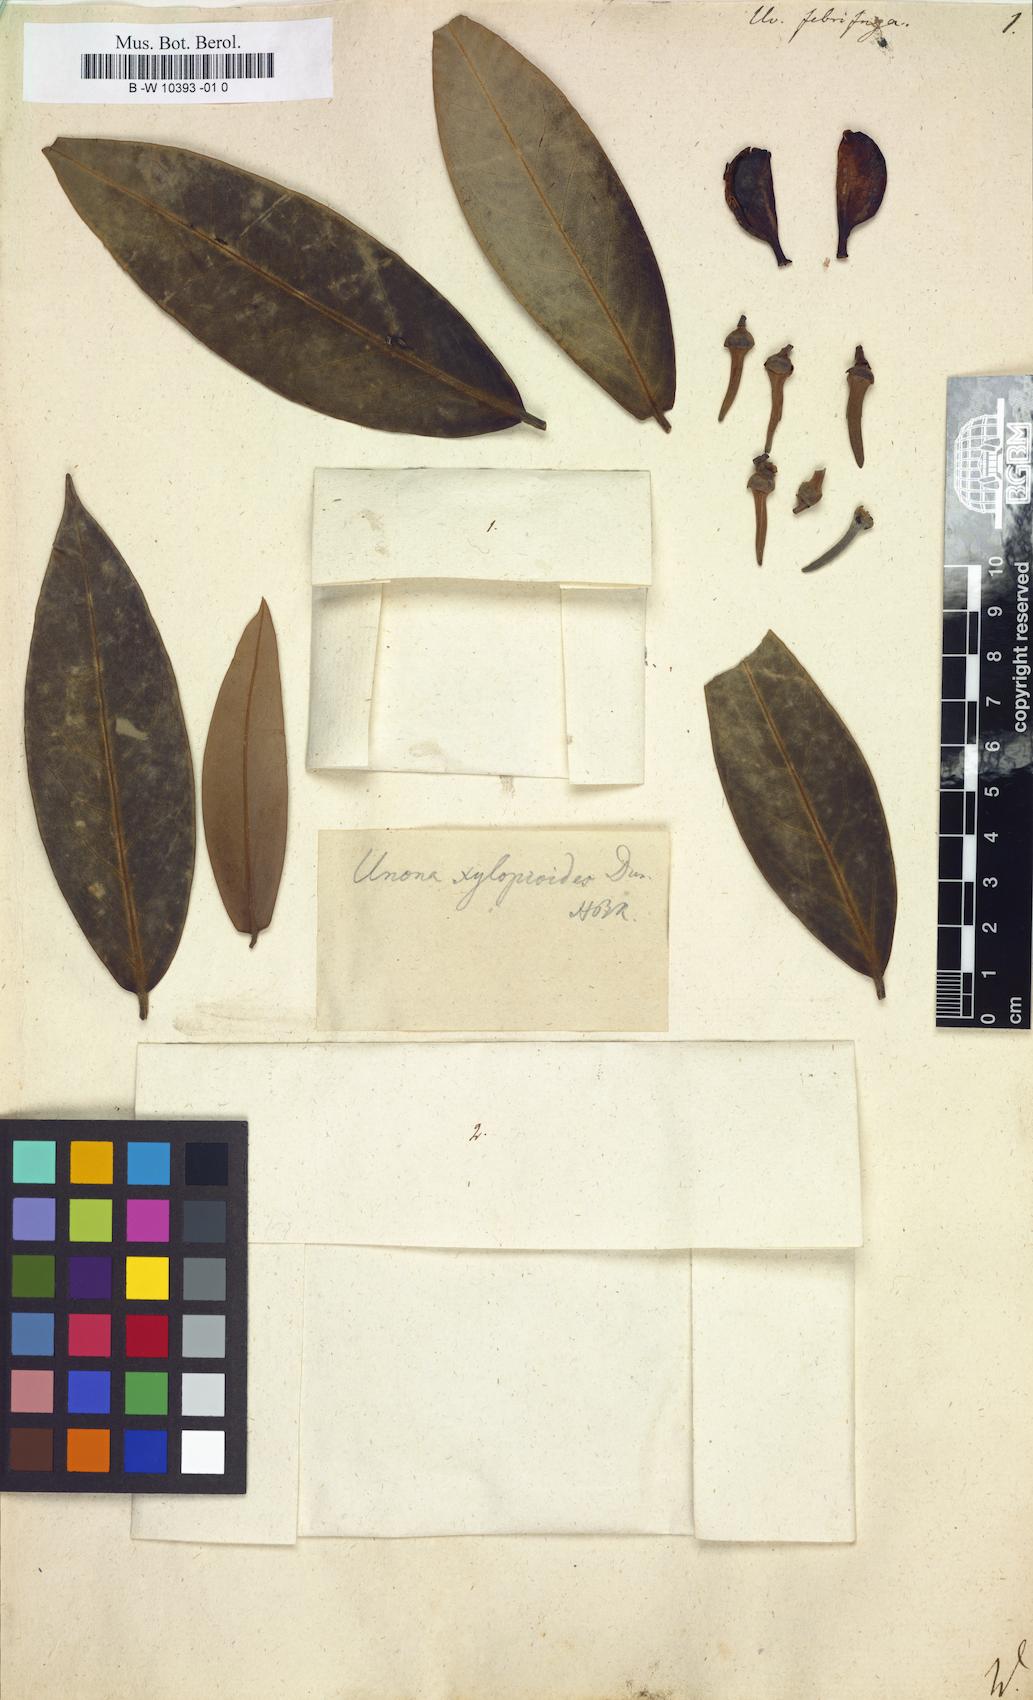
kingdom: Plantae
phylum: Tracheophyta
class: Magnoliopsida
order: Magnoliales
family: Annonaceae
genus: Xylopia
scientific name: Xylopia cuspidata
